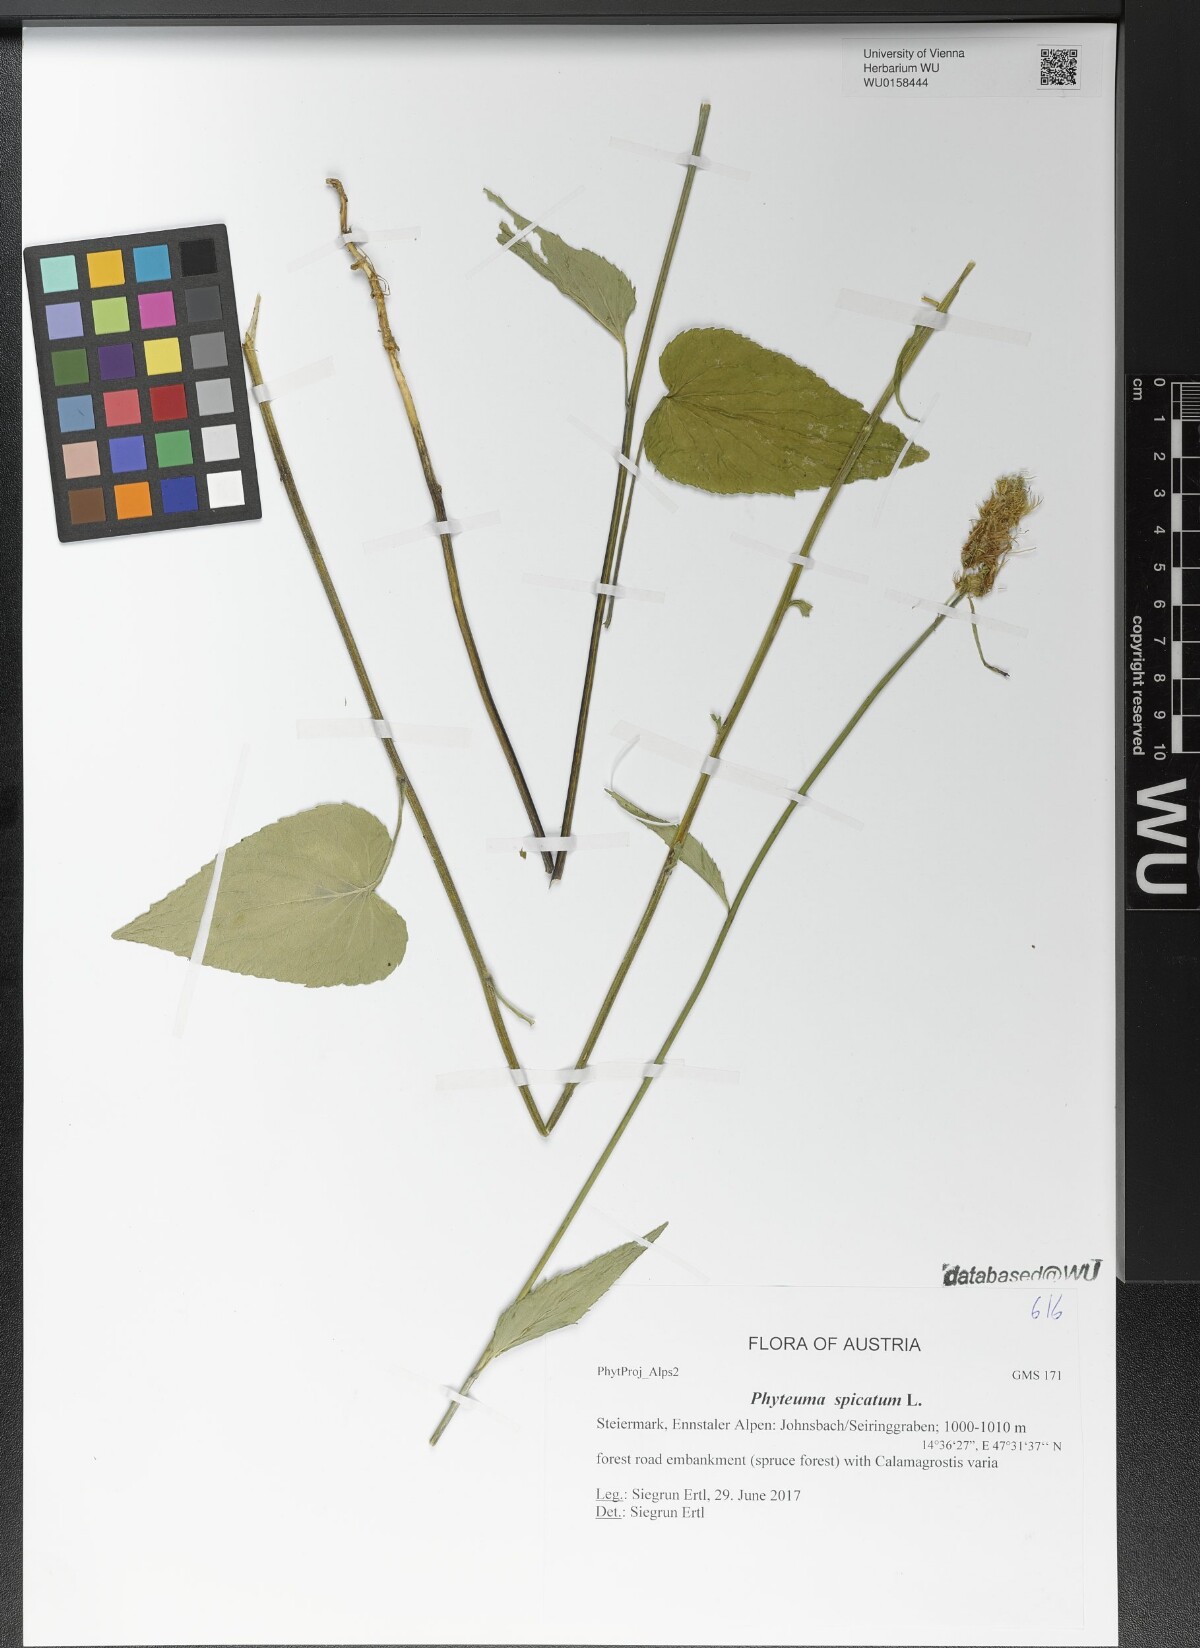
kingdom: Plantae
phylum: Tracheophyta
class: Magnoliopsida
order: Asterales
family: Campanulaceae
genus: Phyteuma
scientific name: Phyteuma spicatum
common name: Spiked rampion
